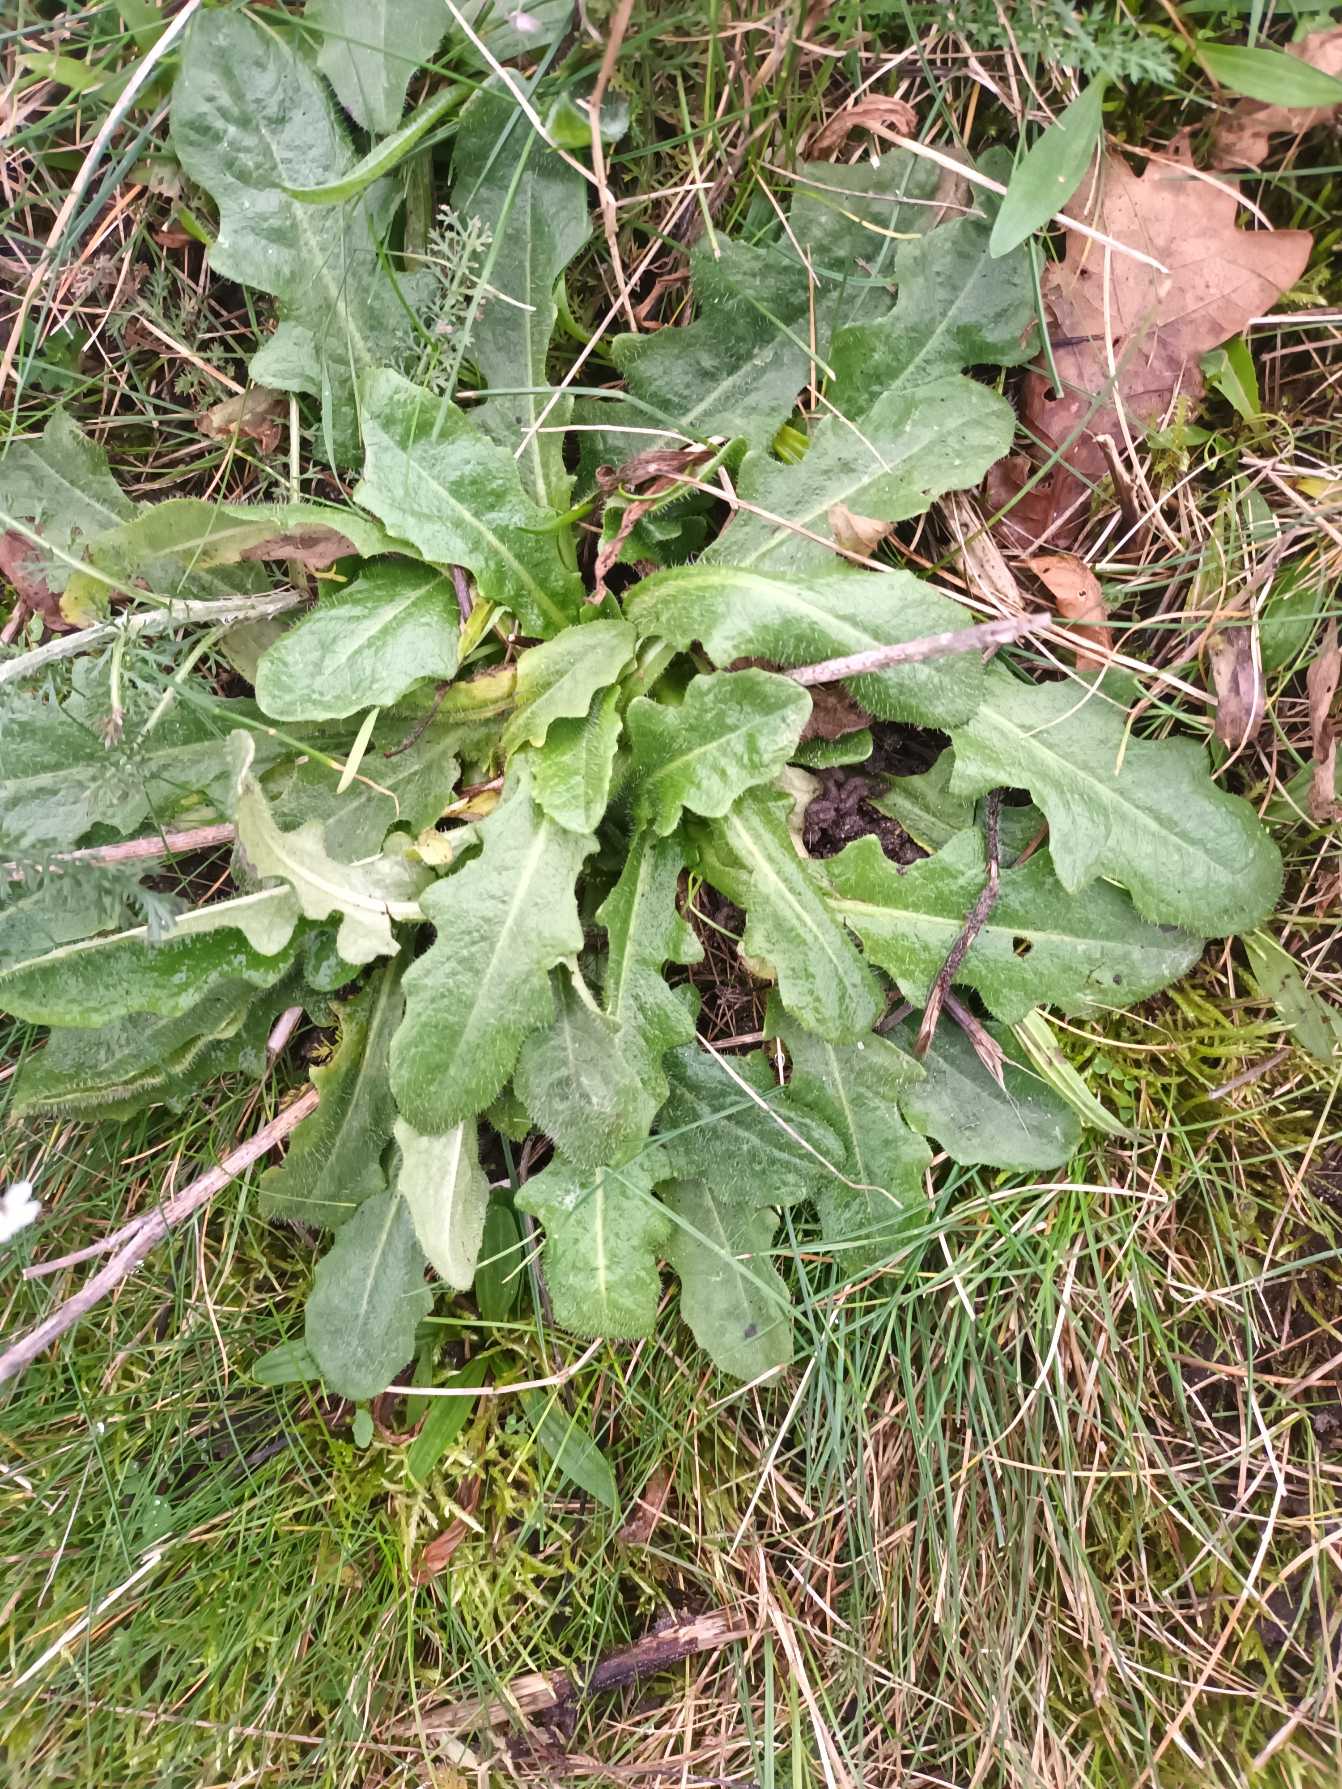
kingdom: Plantae
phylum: Tracheophyta
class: Magnoliopsida
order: Asterales
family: Asteraceae
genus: Hypochaeris
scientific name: Hypochaeris radicata
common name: Almindelig kongepen
